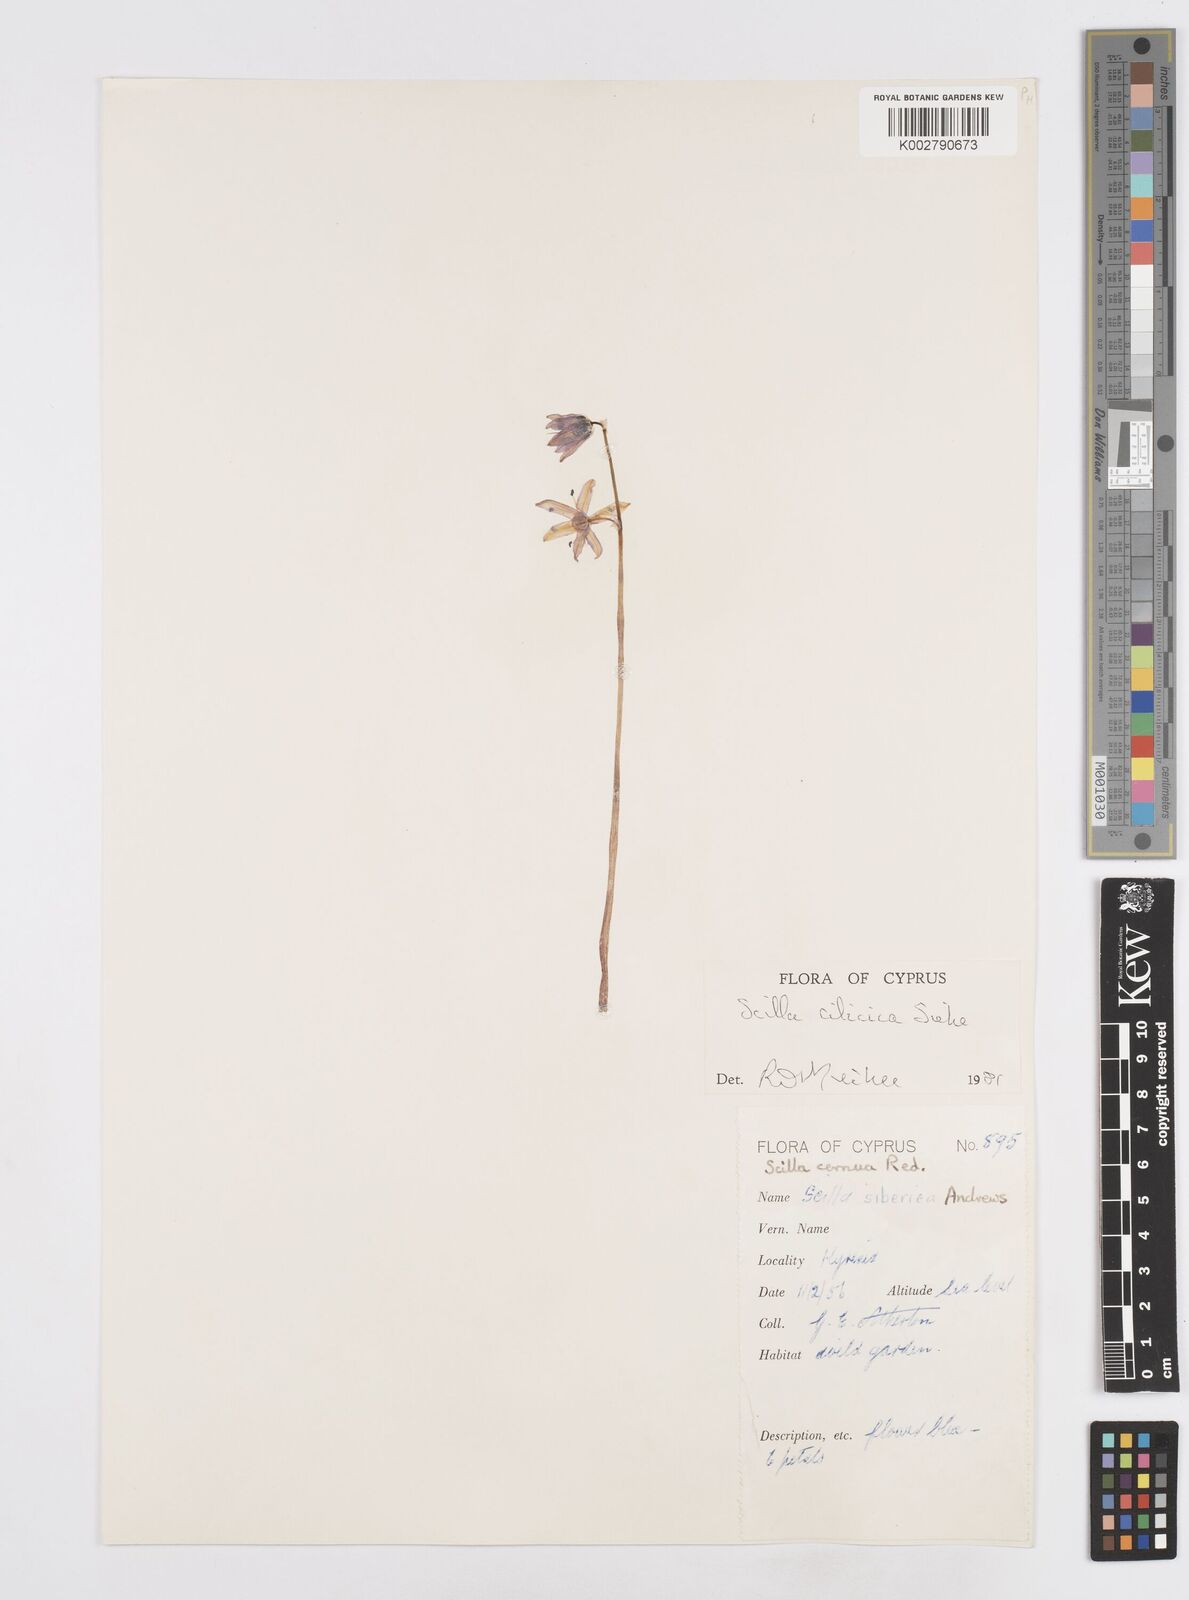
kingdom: Plantae
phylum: Tracheophyta
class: Liliopsida
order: Asparagales
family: Asparagaceae
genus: Scilla
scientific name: Scilla siberica
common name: Siberian squill
